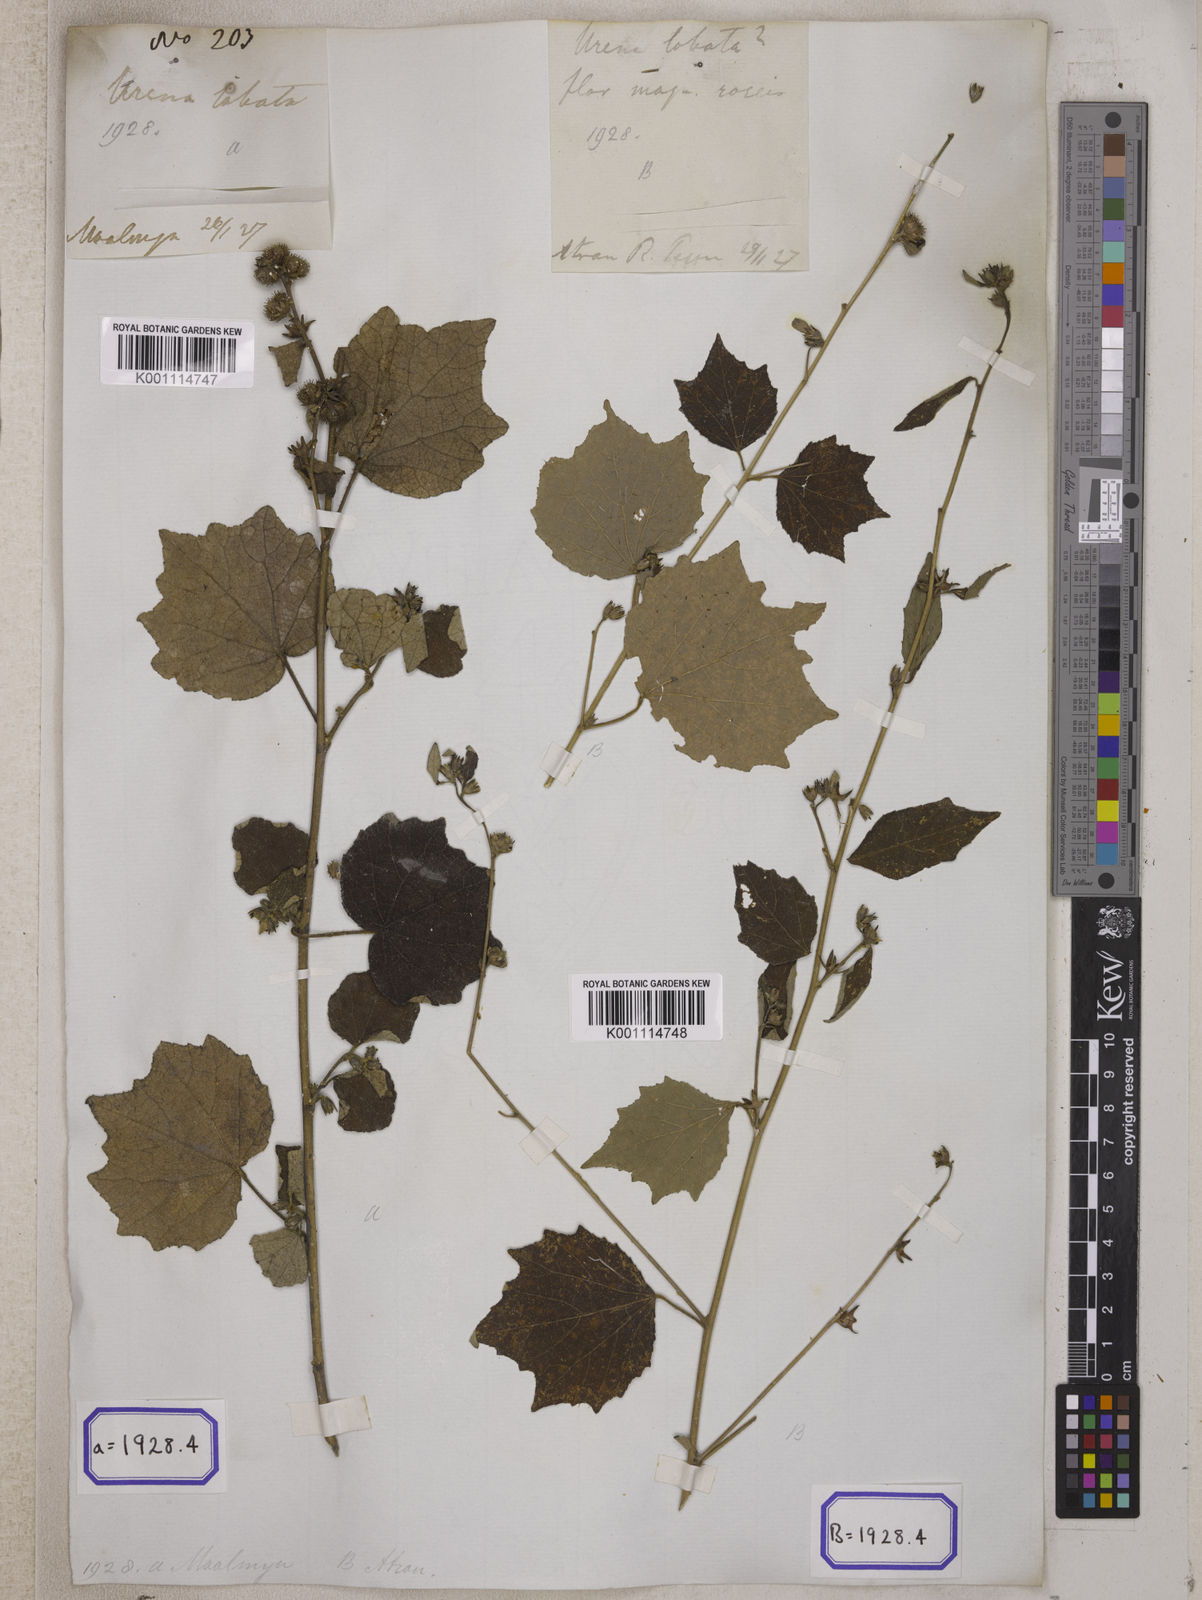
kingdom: Plantae
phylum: Tracheophyta
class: Magnoliopsida
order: Malvales
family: Malvaceae
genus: Urena
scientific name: Urena lobata
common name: Caesarweed
